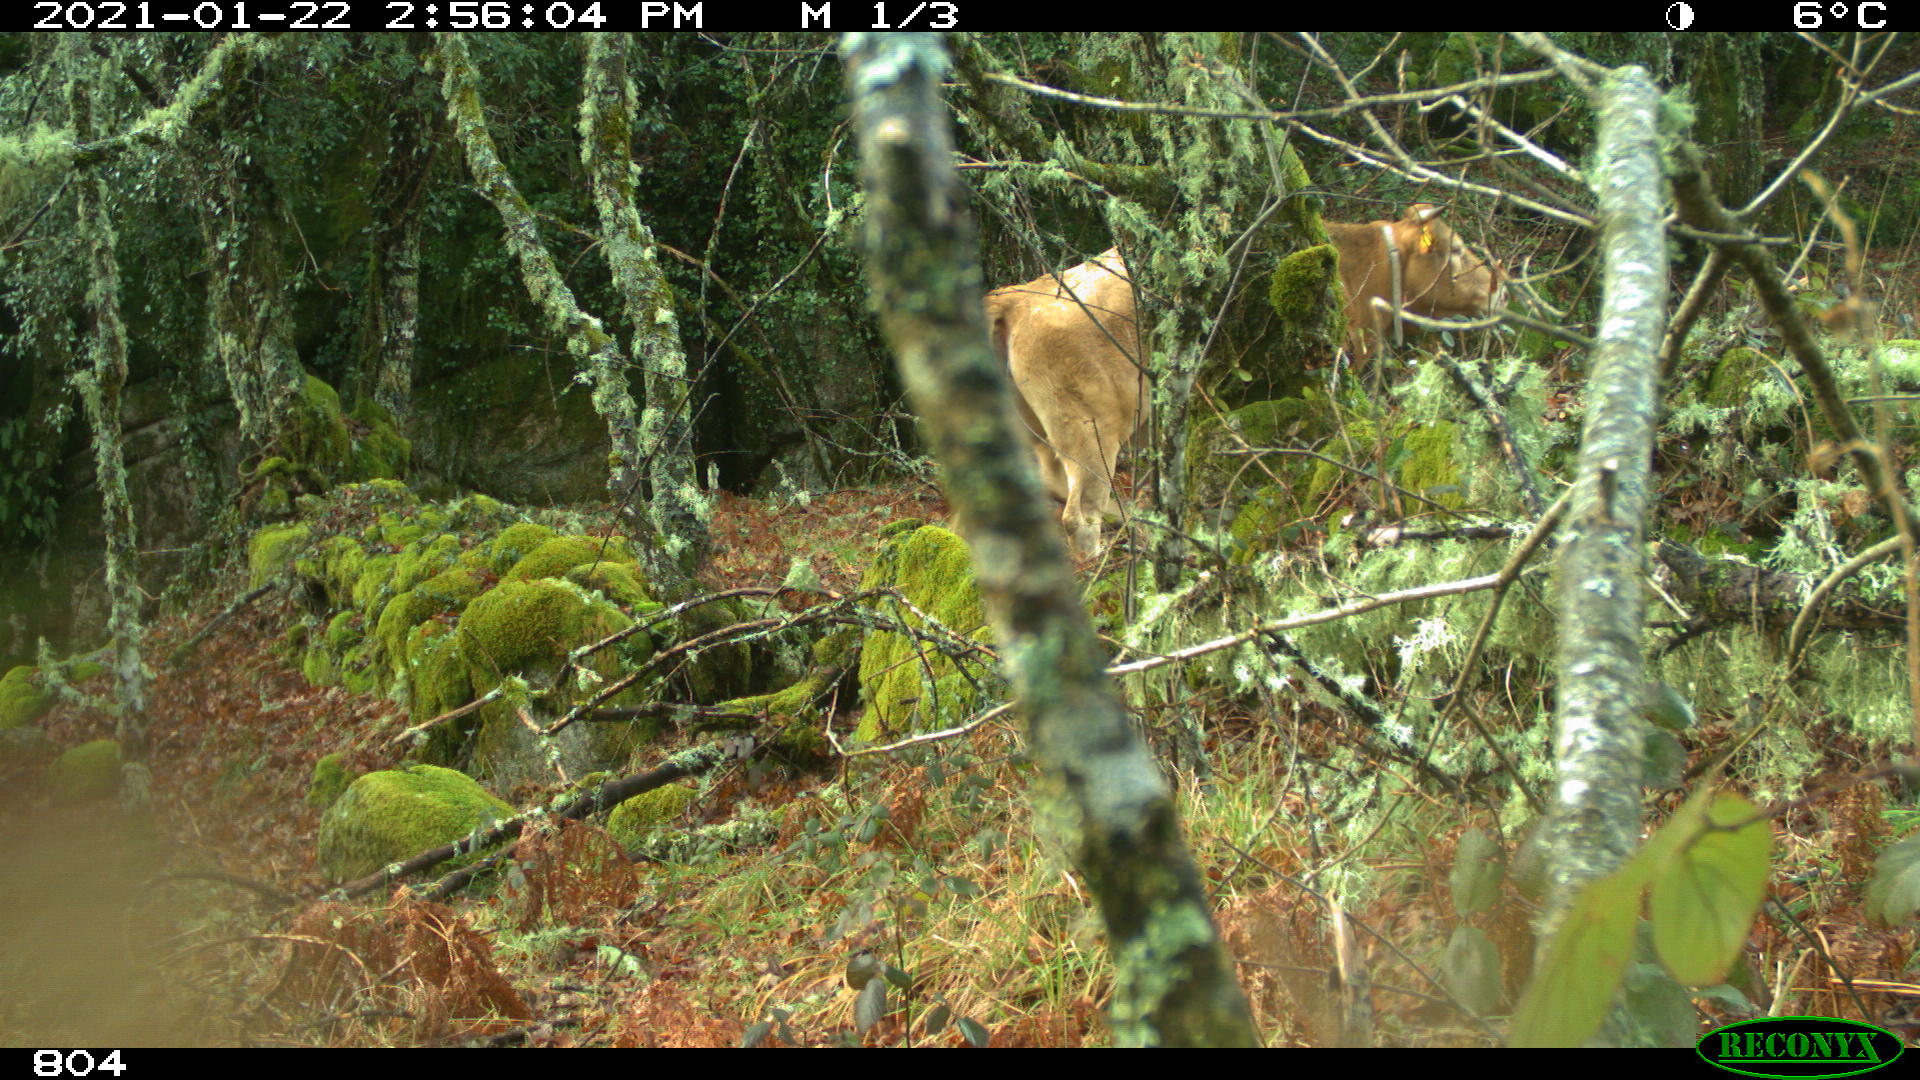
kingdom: Animalia
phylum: Chordata
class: Mammalia
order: Artiodactyla
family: Bovidae
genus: Bos
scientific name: Bos taurus
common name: Domesticated cattle
